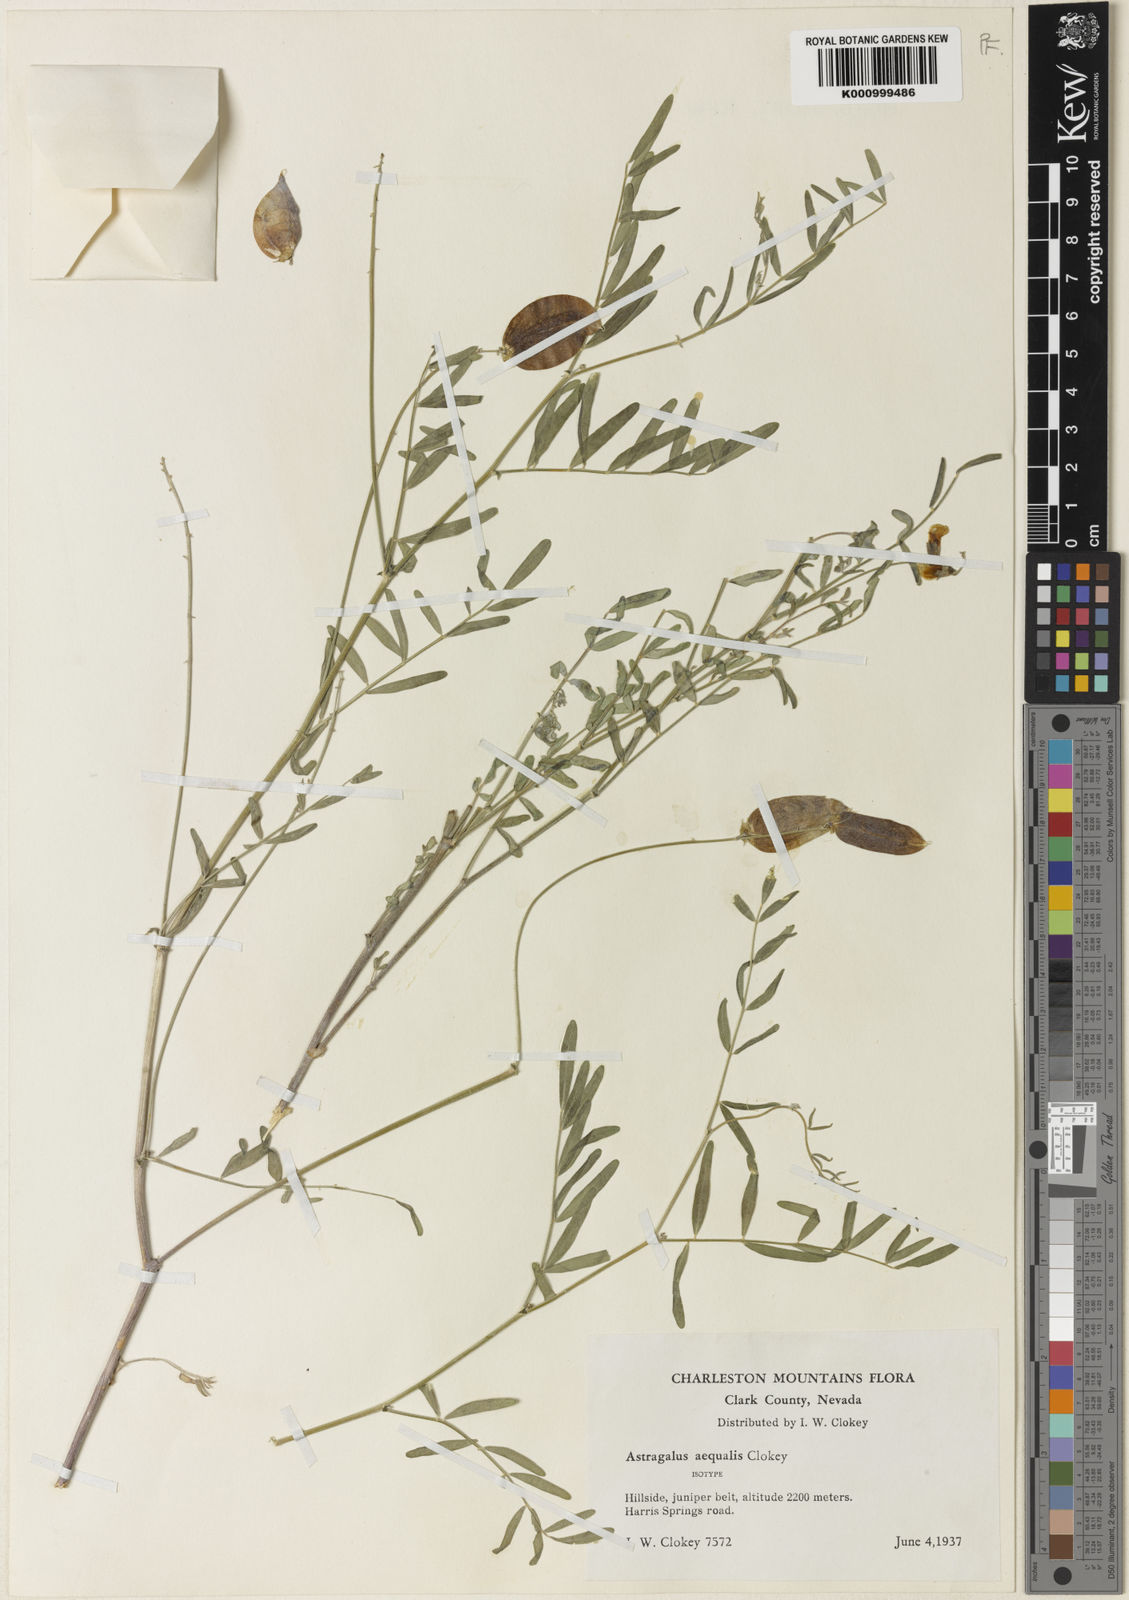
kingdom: Plantae
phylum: Tracheophyta
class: Magnoliopsida
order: Fabales
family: Fabaceae
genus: Astragalus
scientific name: Astragalus aequalis
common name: Clokey milk-vetch
